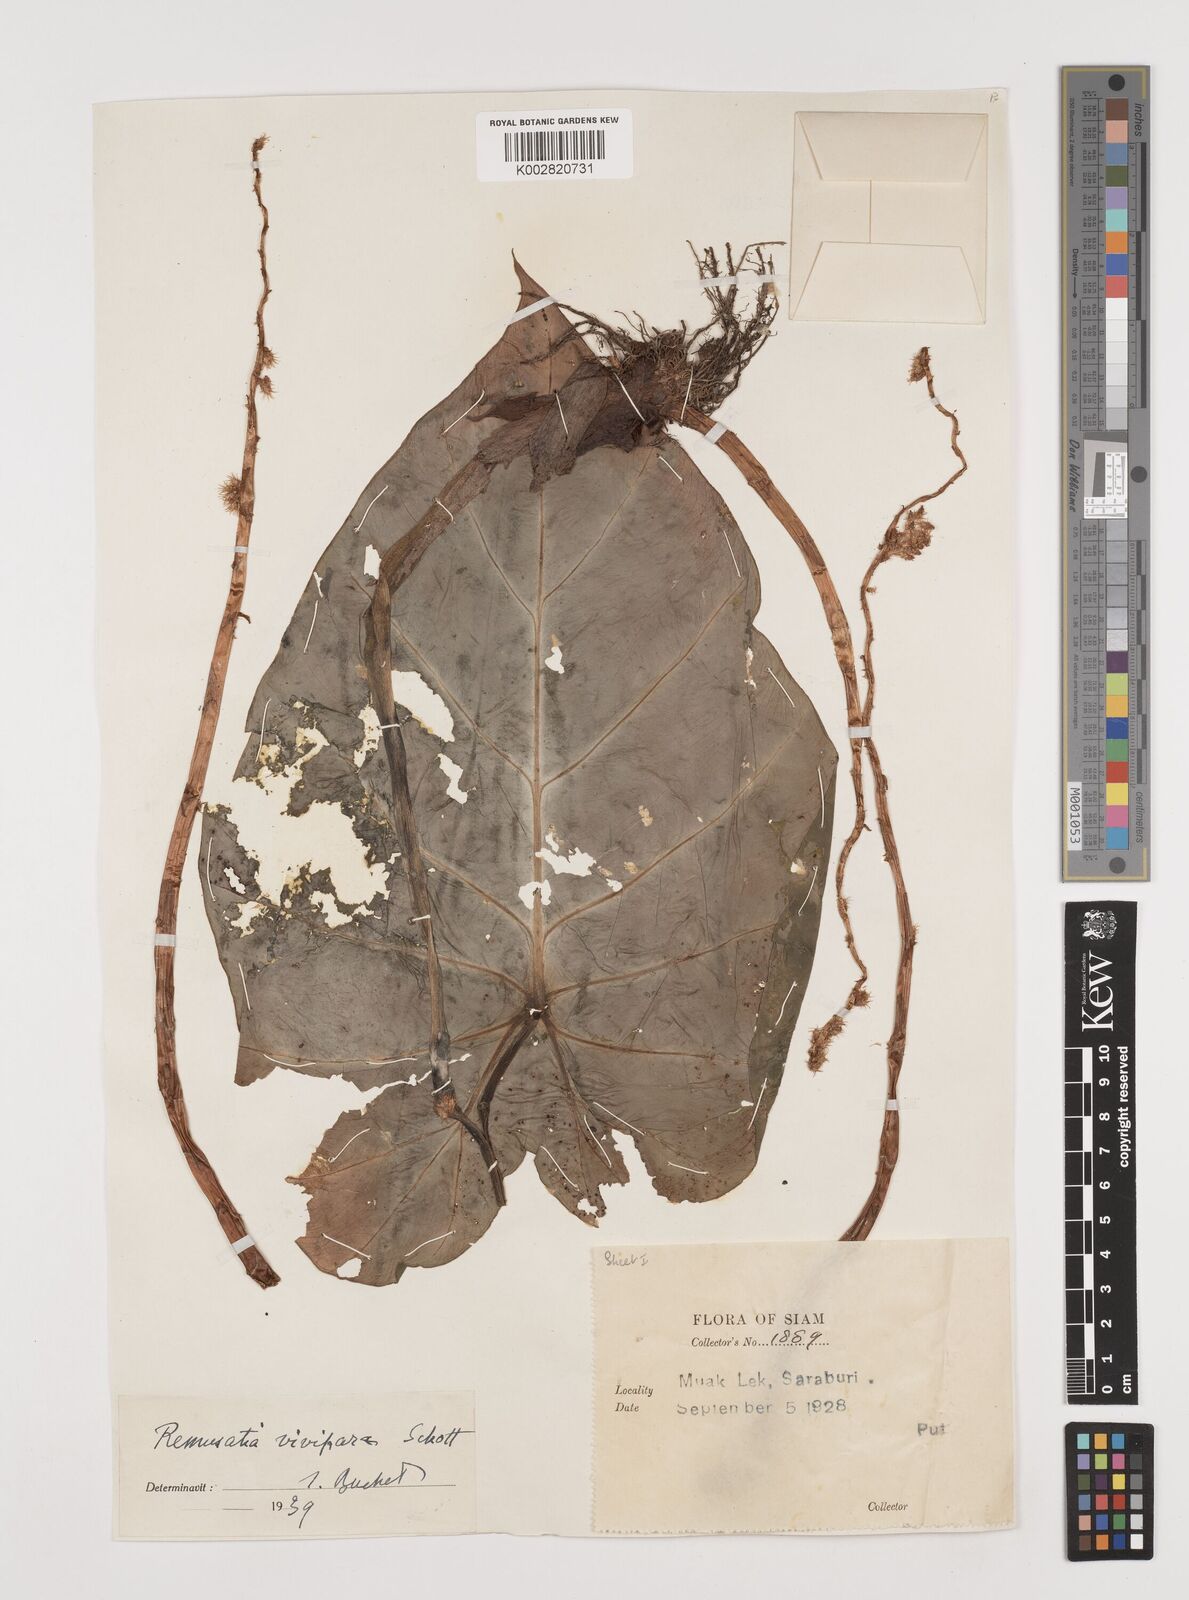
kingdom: Plantae
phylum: Tracheophyta
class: Liliopsida
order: Alismatales
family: Araceae
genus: Remusatia
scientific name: Remusatia vivipara
